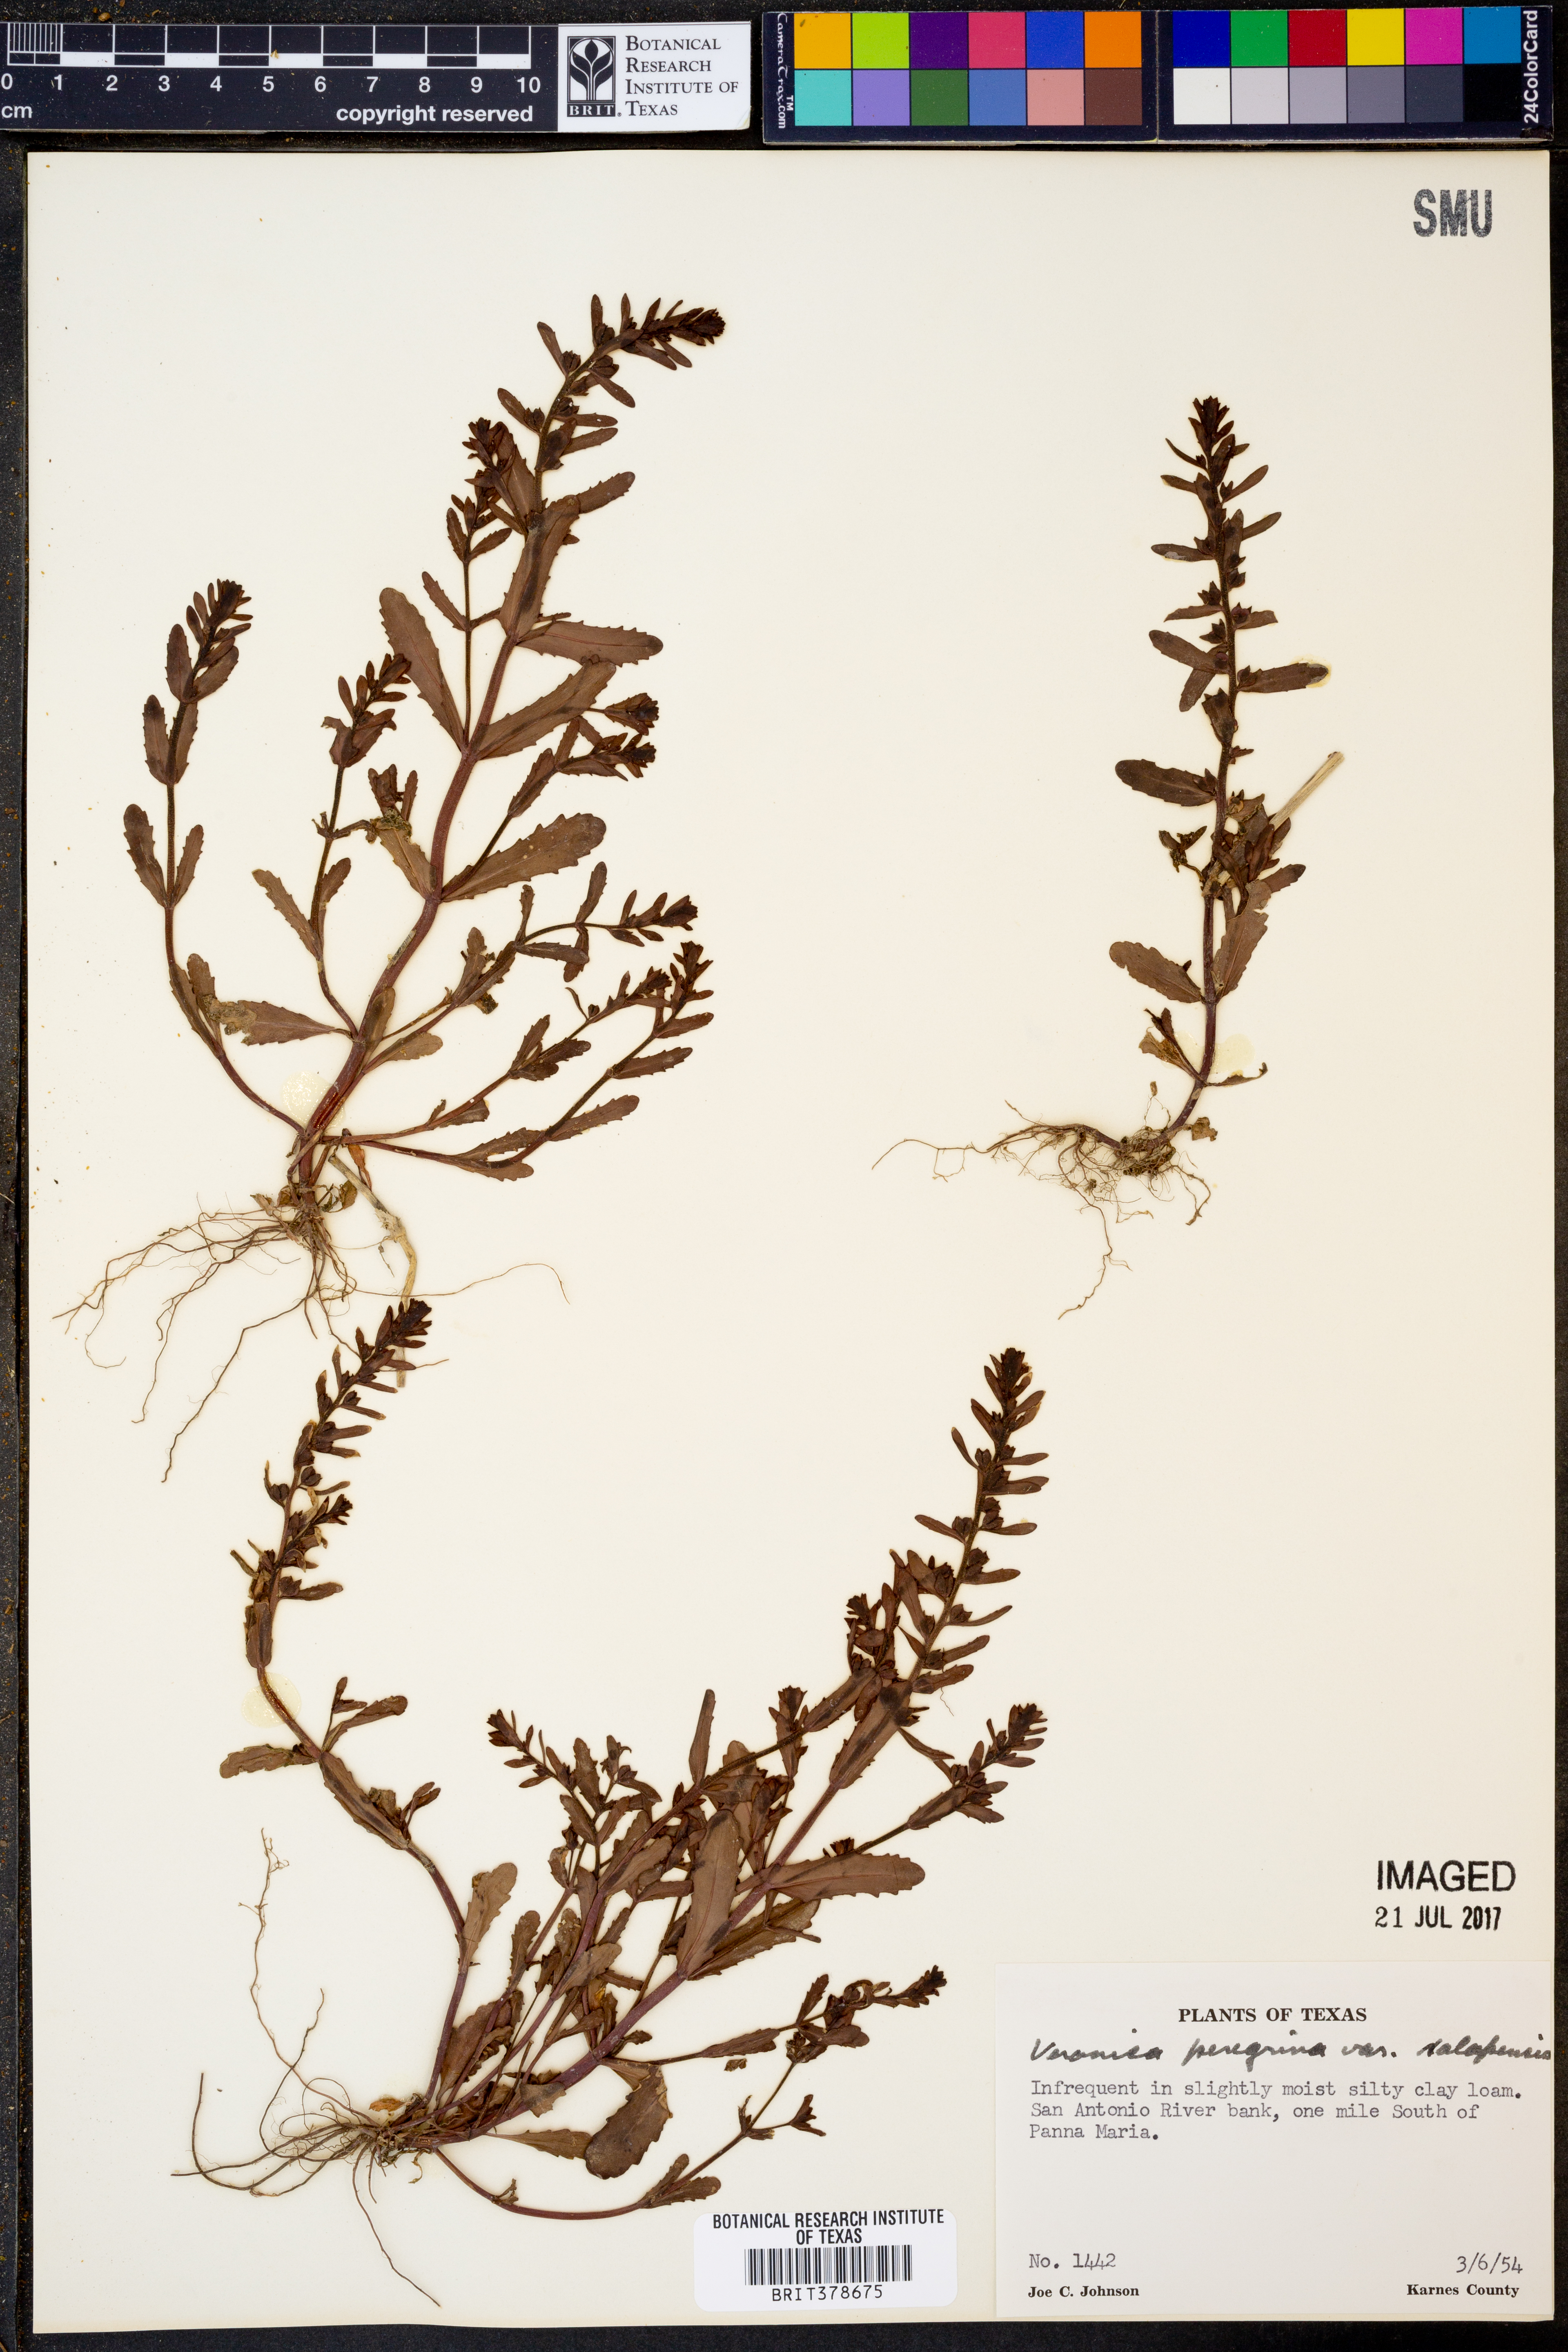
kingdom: Plantae
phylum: Tracheophyta
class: Magnoliopsida
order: Lamiales
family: Plantaginaceae
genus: Veronica
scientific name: Veronica peregrina
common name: Neckweed
